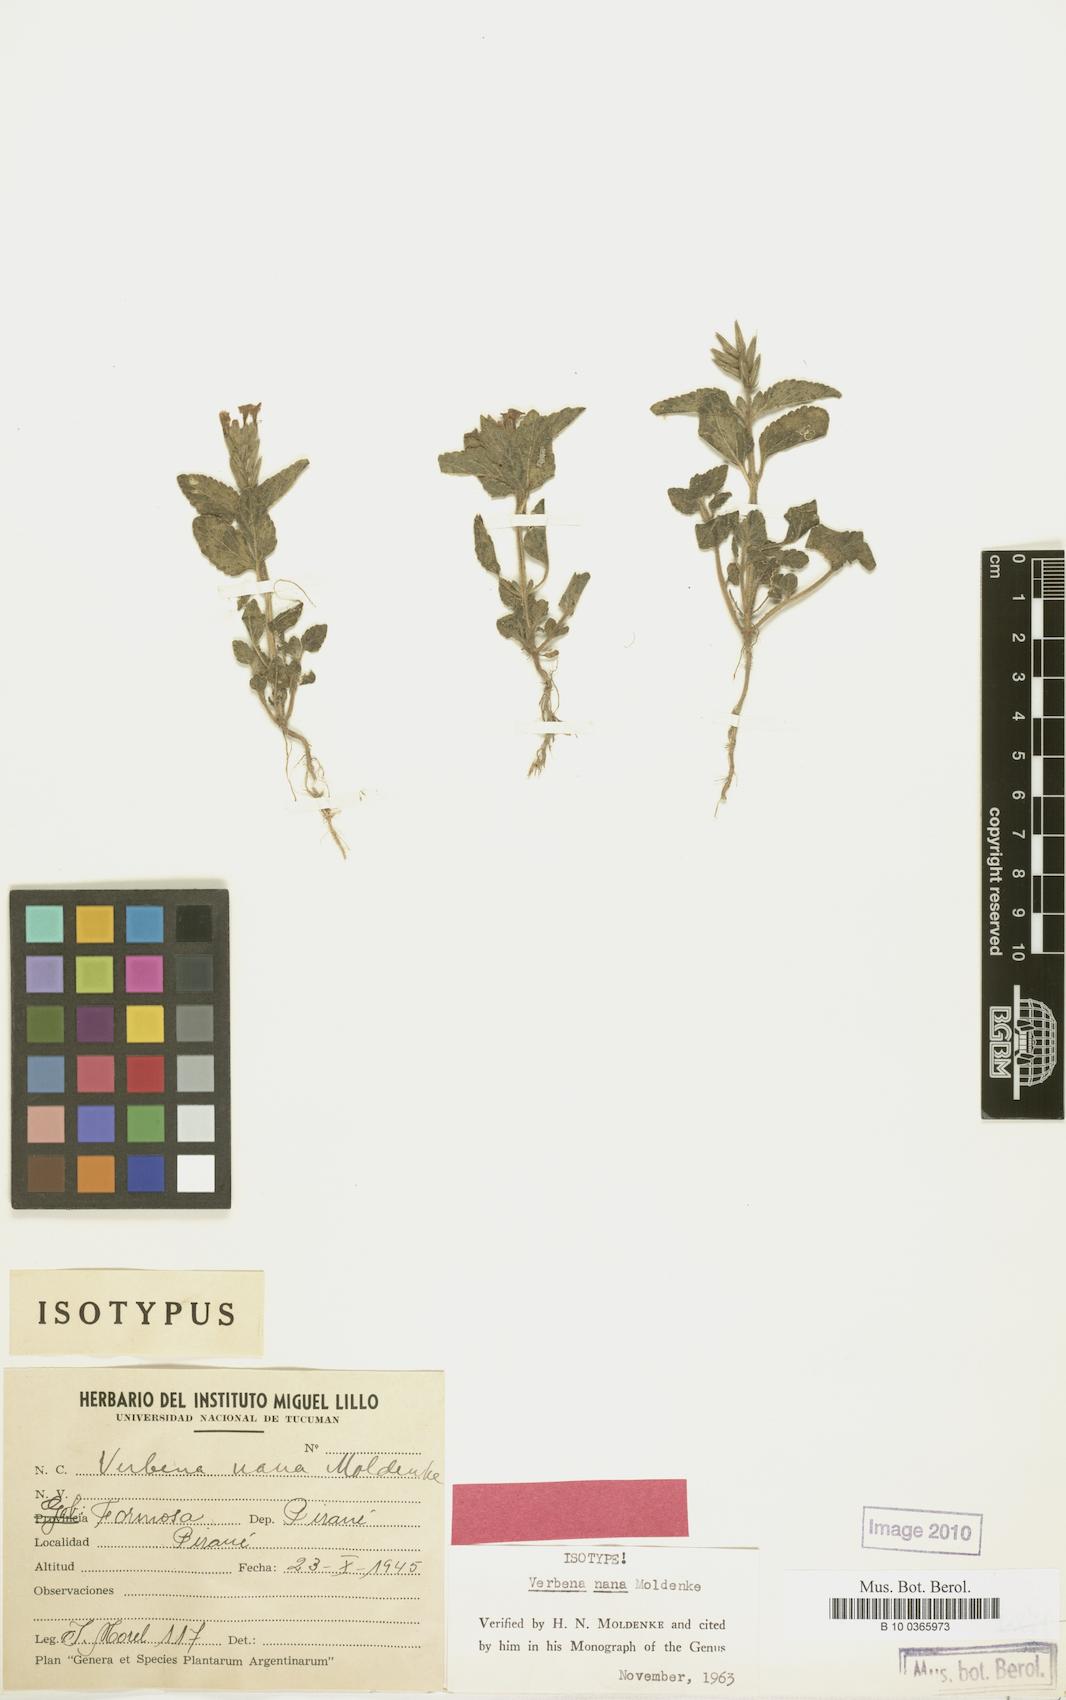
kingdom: Plantae
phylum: Tracheophyta
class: Magnoliopsida
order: Lamiales
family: Verbenaceae
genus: Verbena
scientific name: Verbena nana
